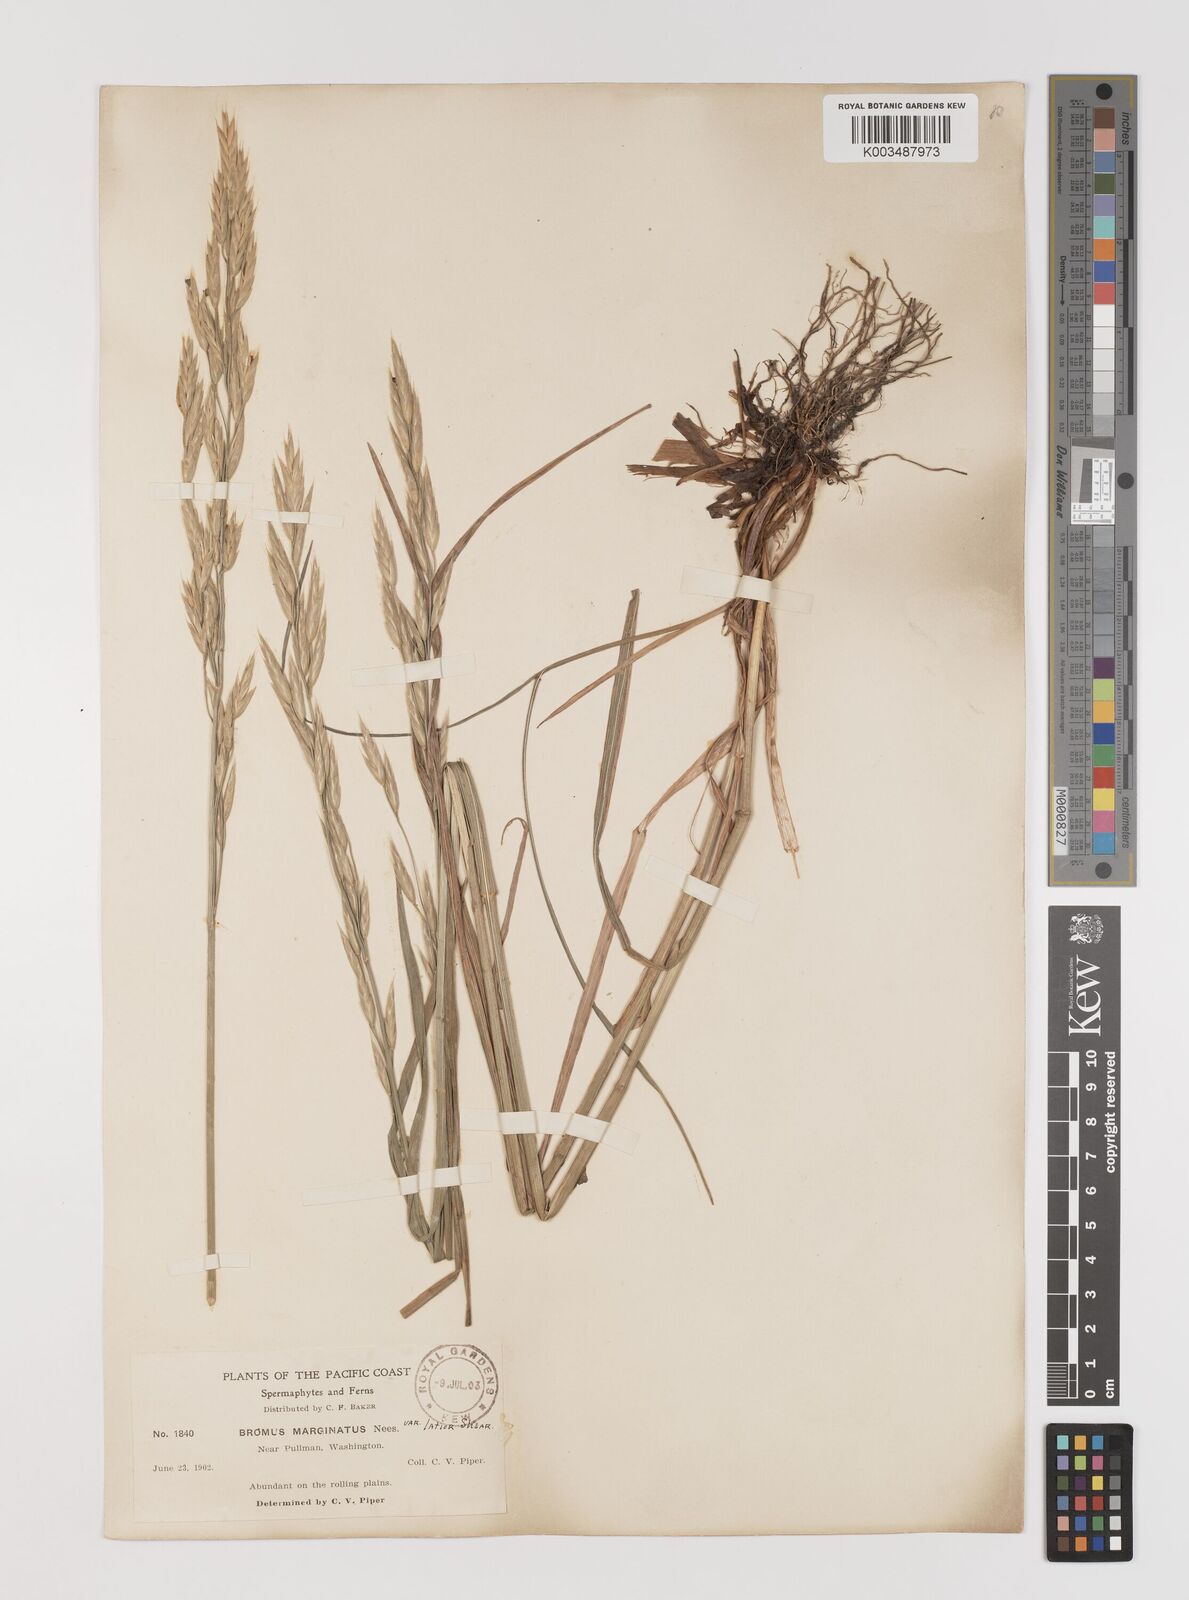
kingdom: Plantae
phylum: Tracheophyta
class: Liliopsida
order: Poales
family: Poaceae
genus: Bromus
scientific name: Bromus marginatus
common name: Western brome
